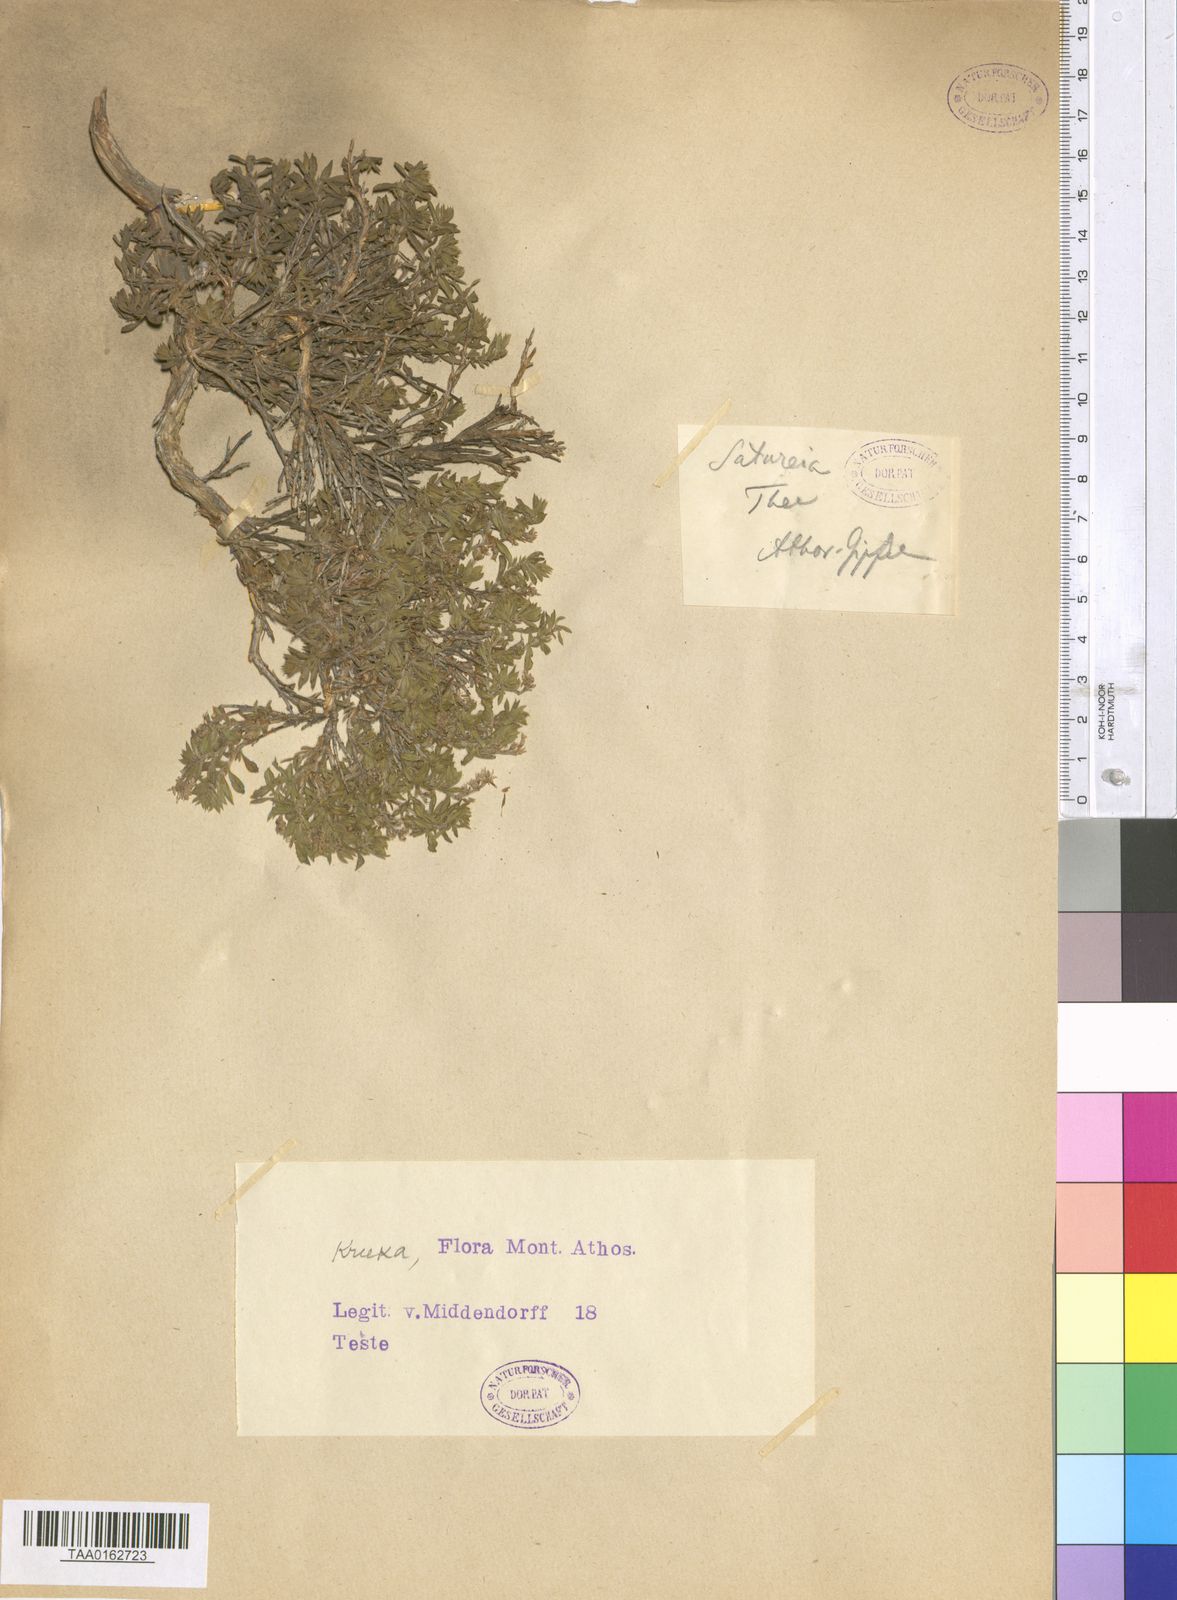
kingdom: Plantae
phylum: Tracheophyta
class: Magnoliopsida
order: Lamiales
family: Lamiaceae
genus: Satureja
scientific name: Satureja
